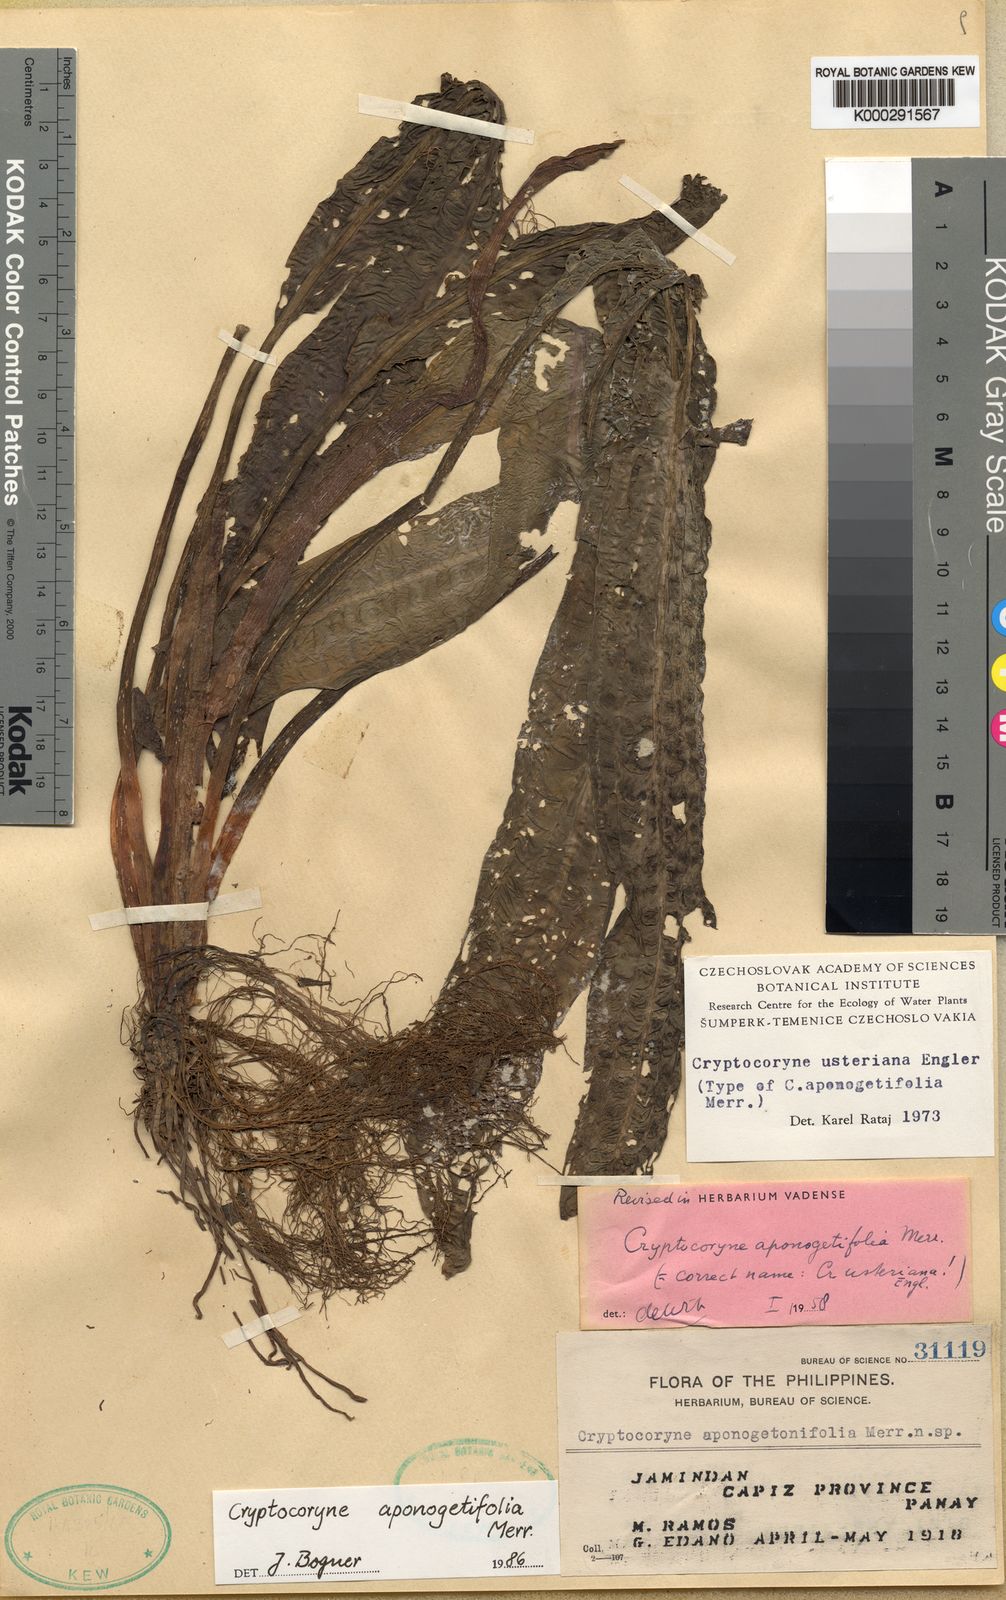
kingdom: Plantae
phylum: Tracheophyta
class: Liliopsida
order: Alismatales
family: Araceae
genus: Cryptocoryne
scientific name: Cryptocoryne aponogetifolia
